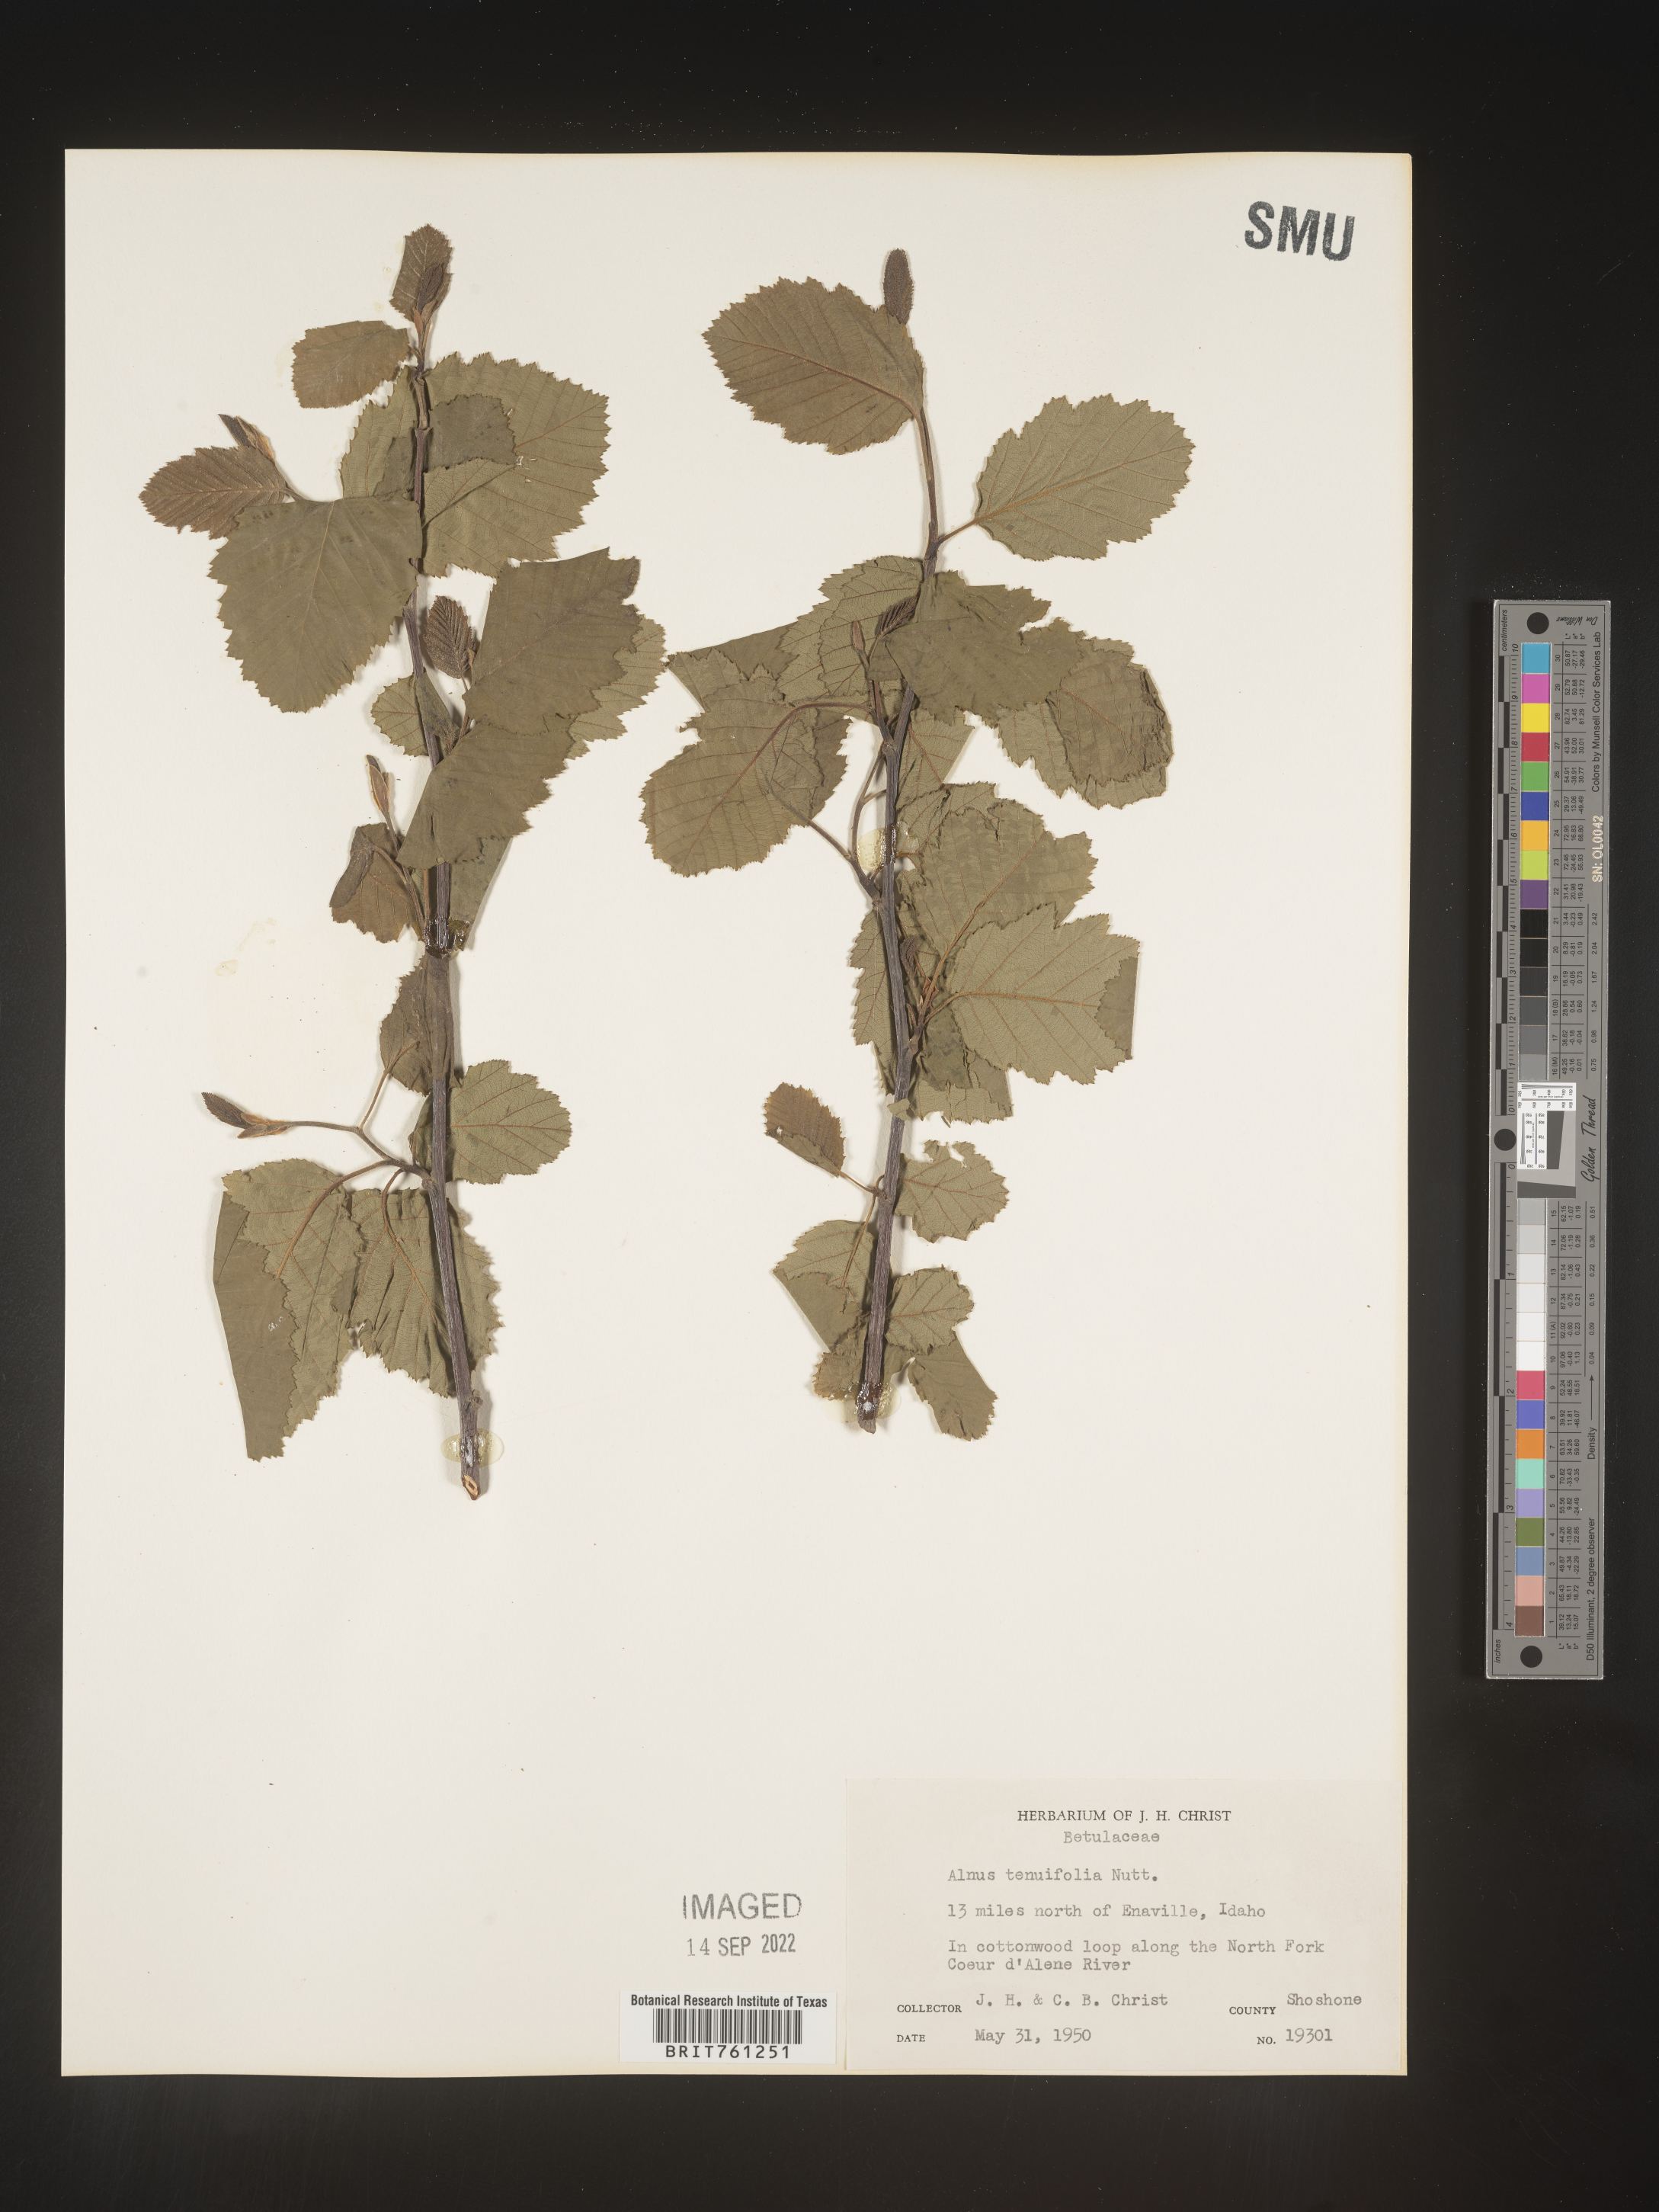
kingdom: Plantae
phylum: Tracheophyta
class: Magnoliopsida
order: Fagales
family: Betulaceae
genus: Alnus
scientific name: Alnus incana
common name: Grey alder
